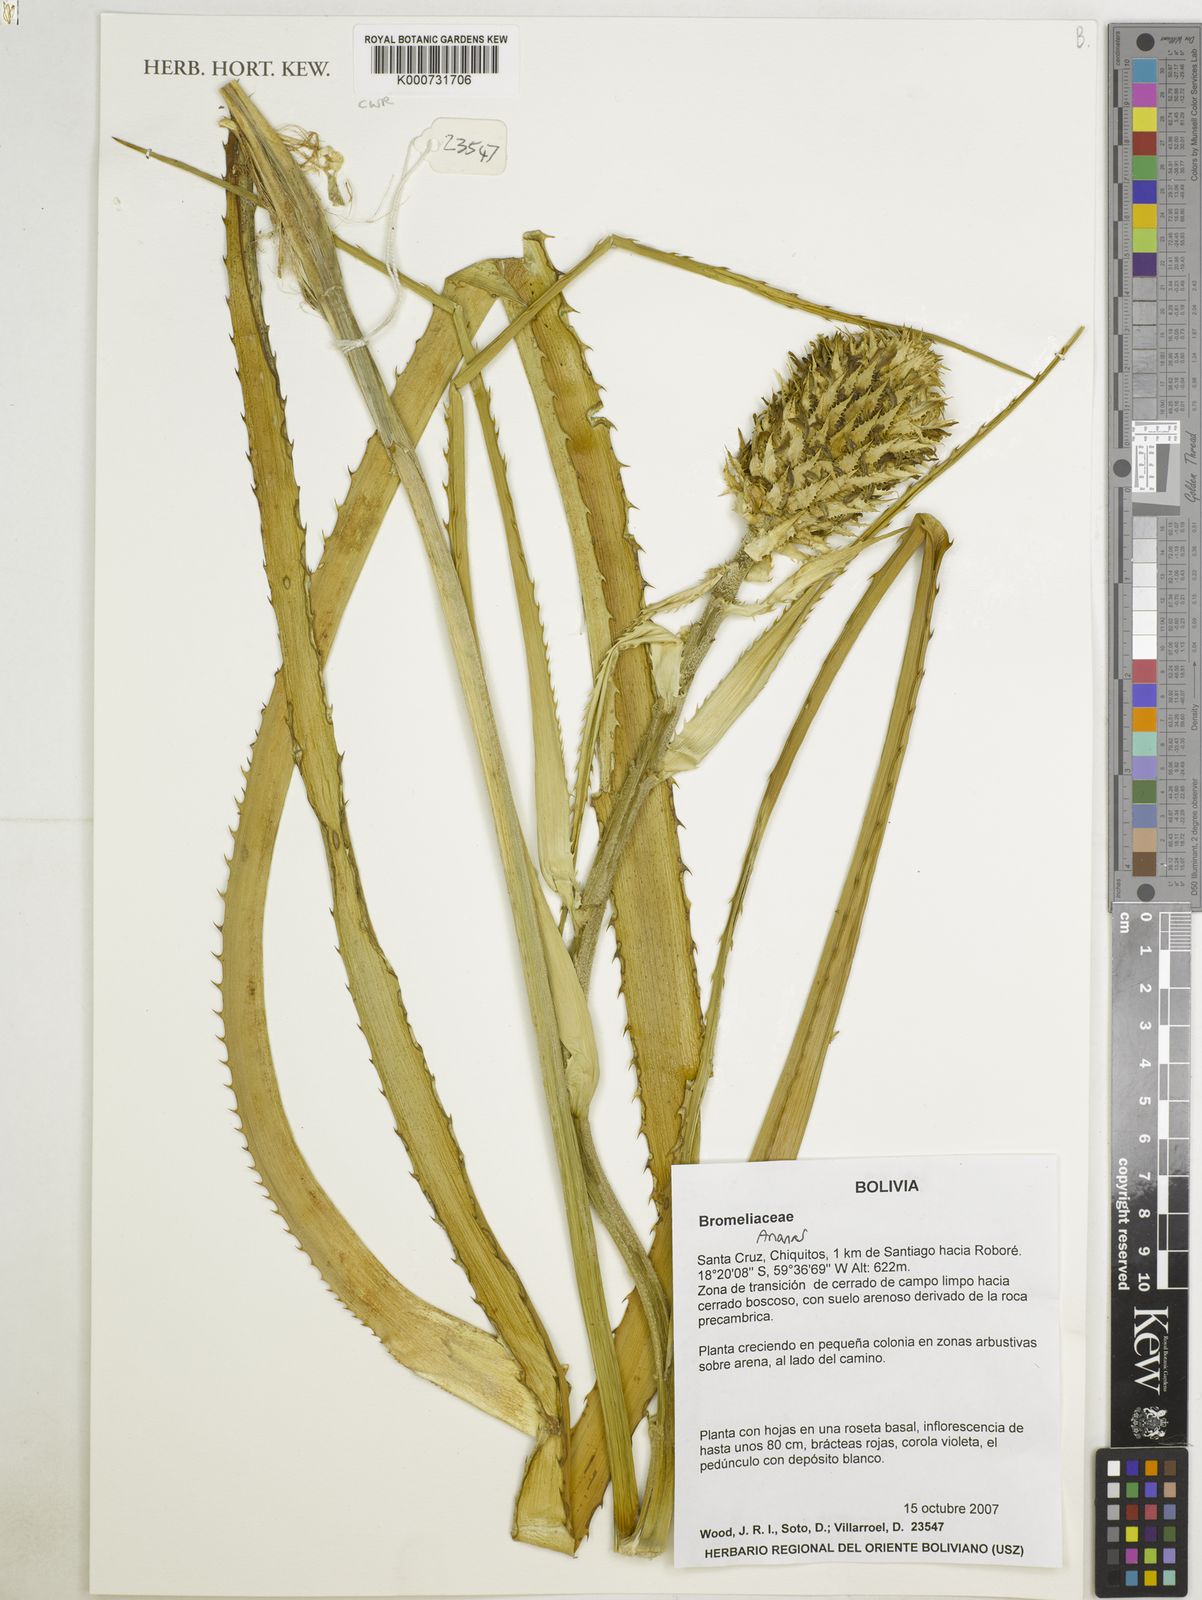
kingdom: Plantae
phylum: Tracheophyta
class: Liliopsida
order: Poales
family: Bromeliaceae
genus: Ananas
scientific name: Ananas
